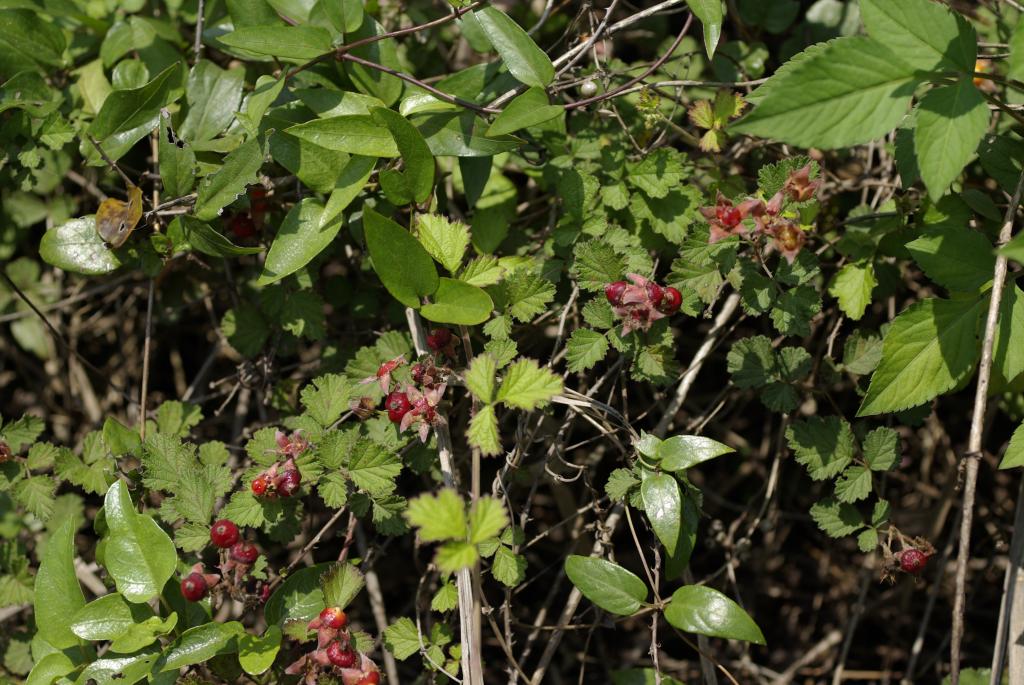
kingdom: Plantae
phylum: Tracheophyta
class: Magnoliopsida
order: Rosales
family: Rosaceae
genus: Rubus
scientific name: Rubus parvifolius
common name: Threeleaf blackberry
